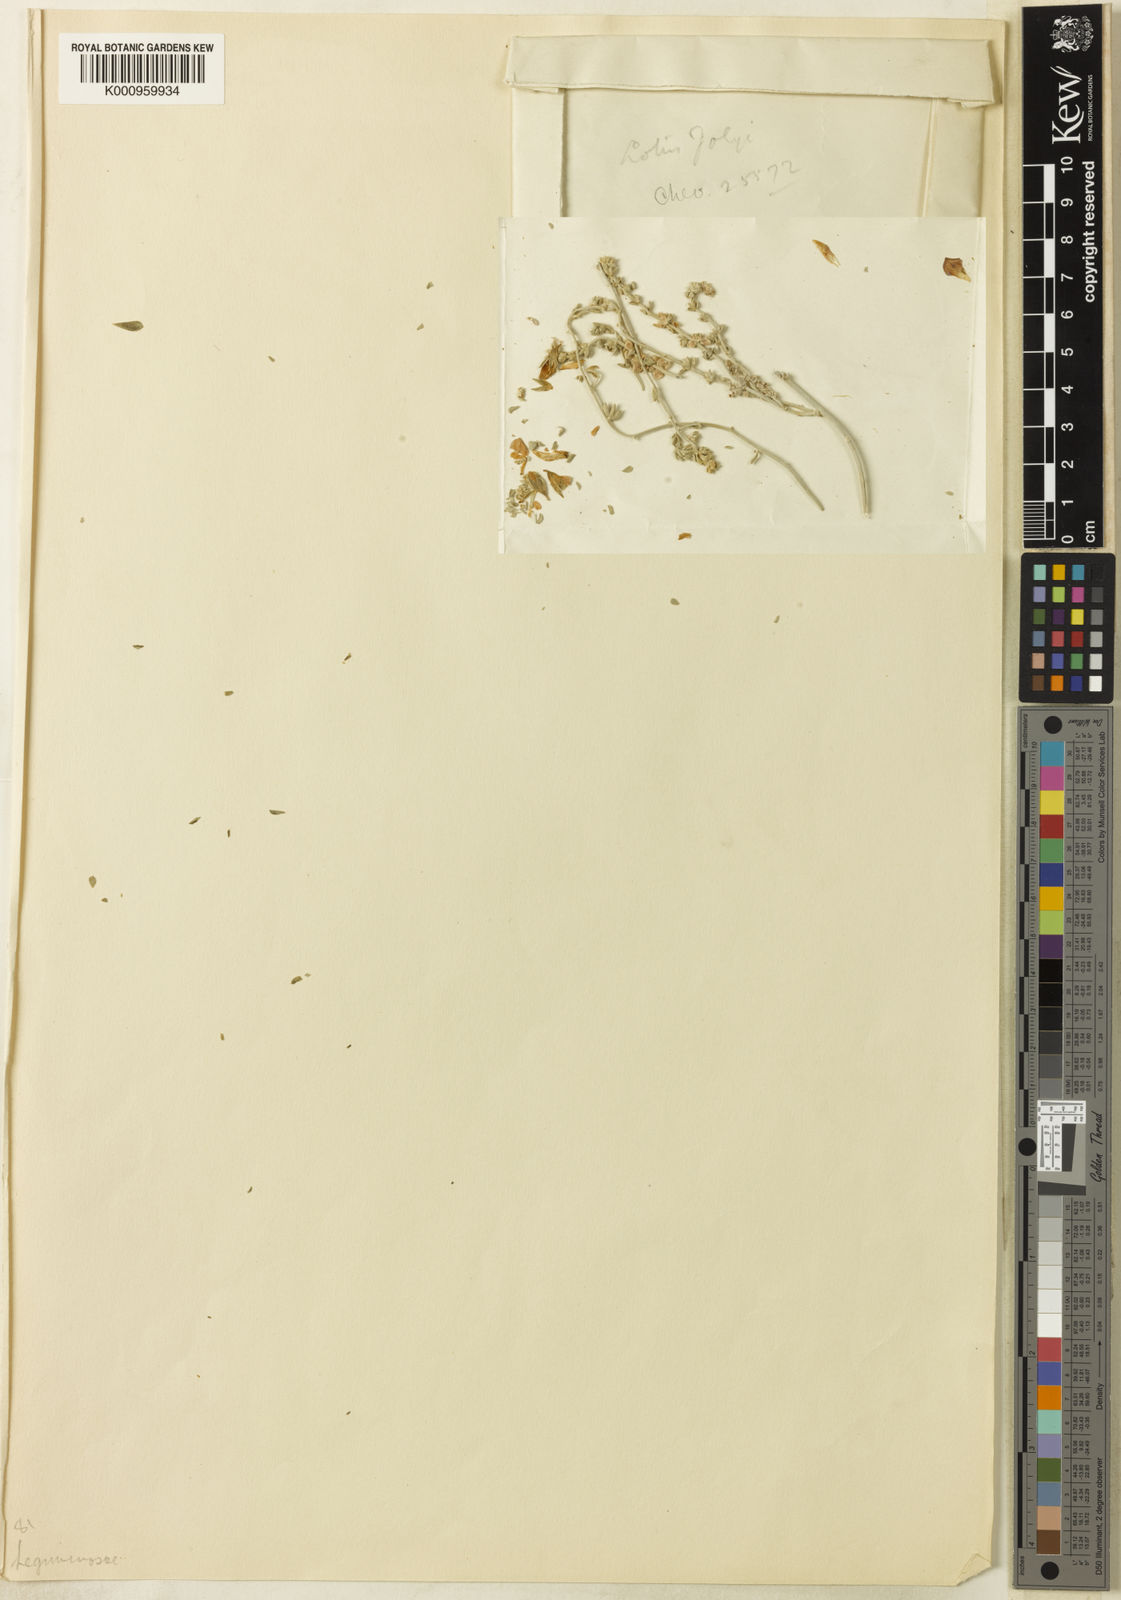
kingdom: Plantae
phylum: Tracheophyta
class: Magnoliopsida
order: Fabales
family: Fabaceae
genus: Lotus
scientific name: Lotus jolyi
